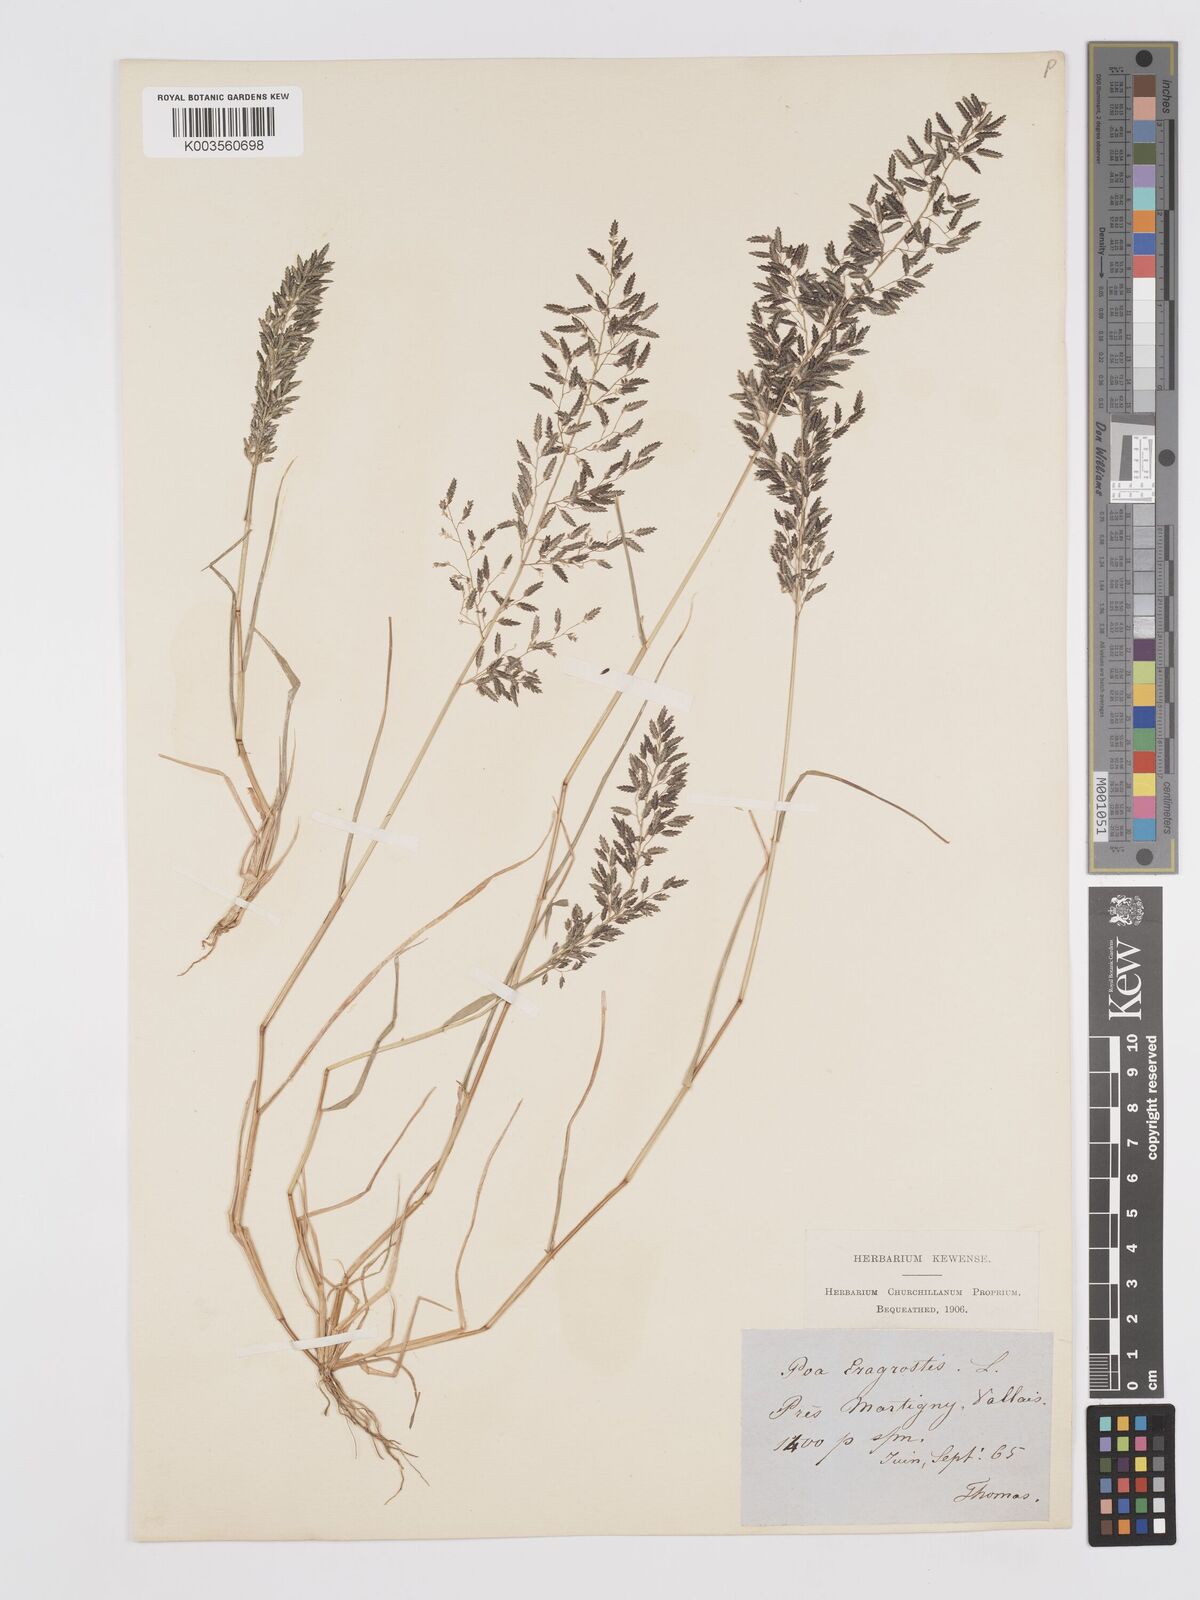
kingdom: Plantae
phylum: Tracheophyta
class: Liliopsida
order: Poales
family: Poaceae
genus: Eragrostis
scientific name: Eragrostis minor
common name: Small love-grass
